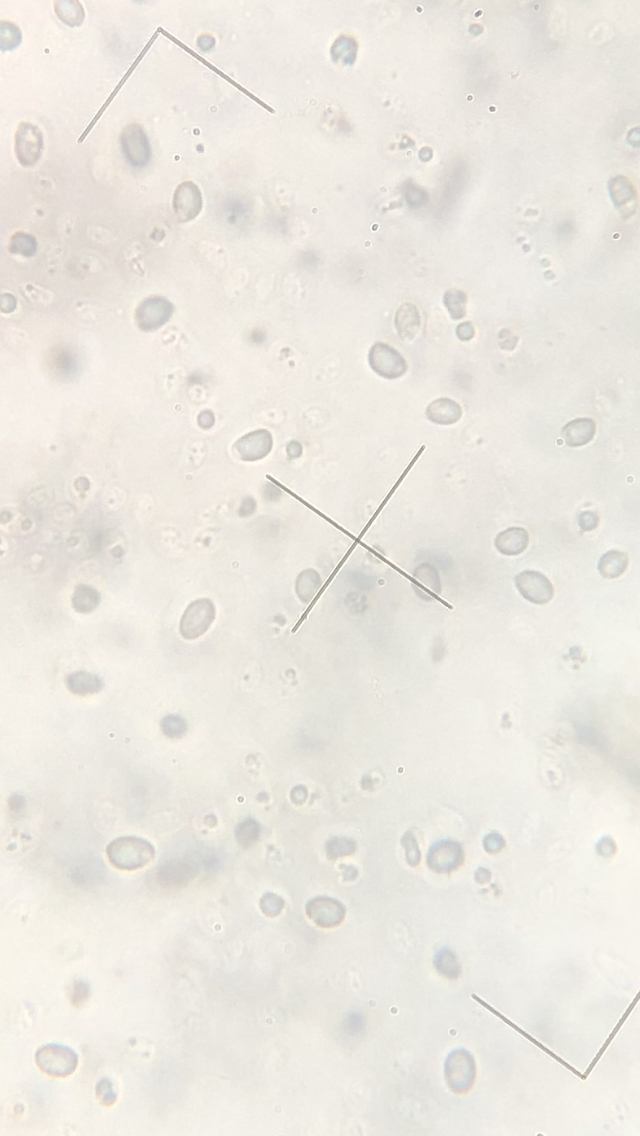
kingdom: Fungi
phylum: Basidiomycota
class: Agaricomycetes
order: Agaricales
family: Hygrophoraceae
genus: Cuphophyllus
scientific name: Cuphophyllus
